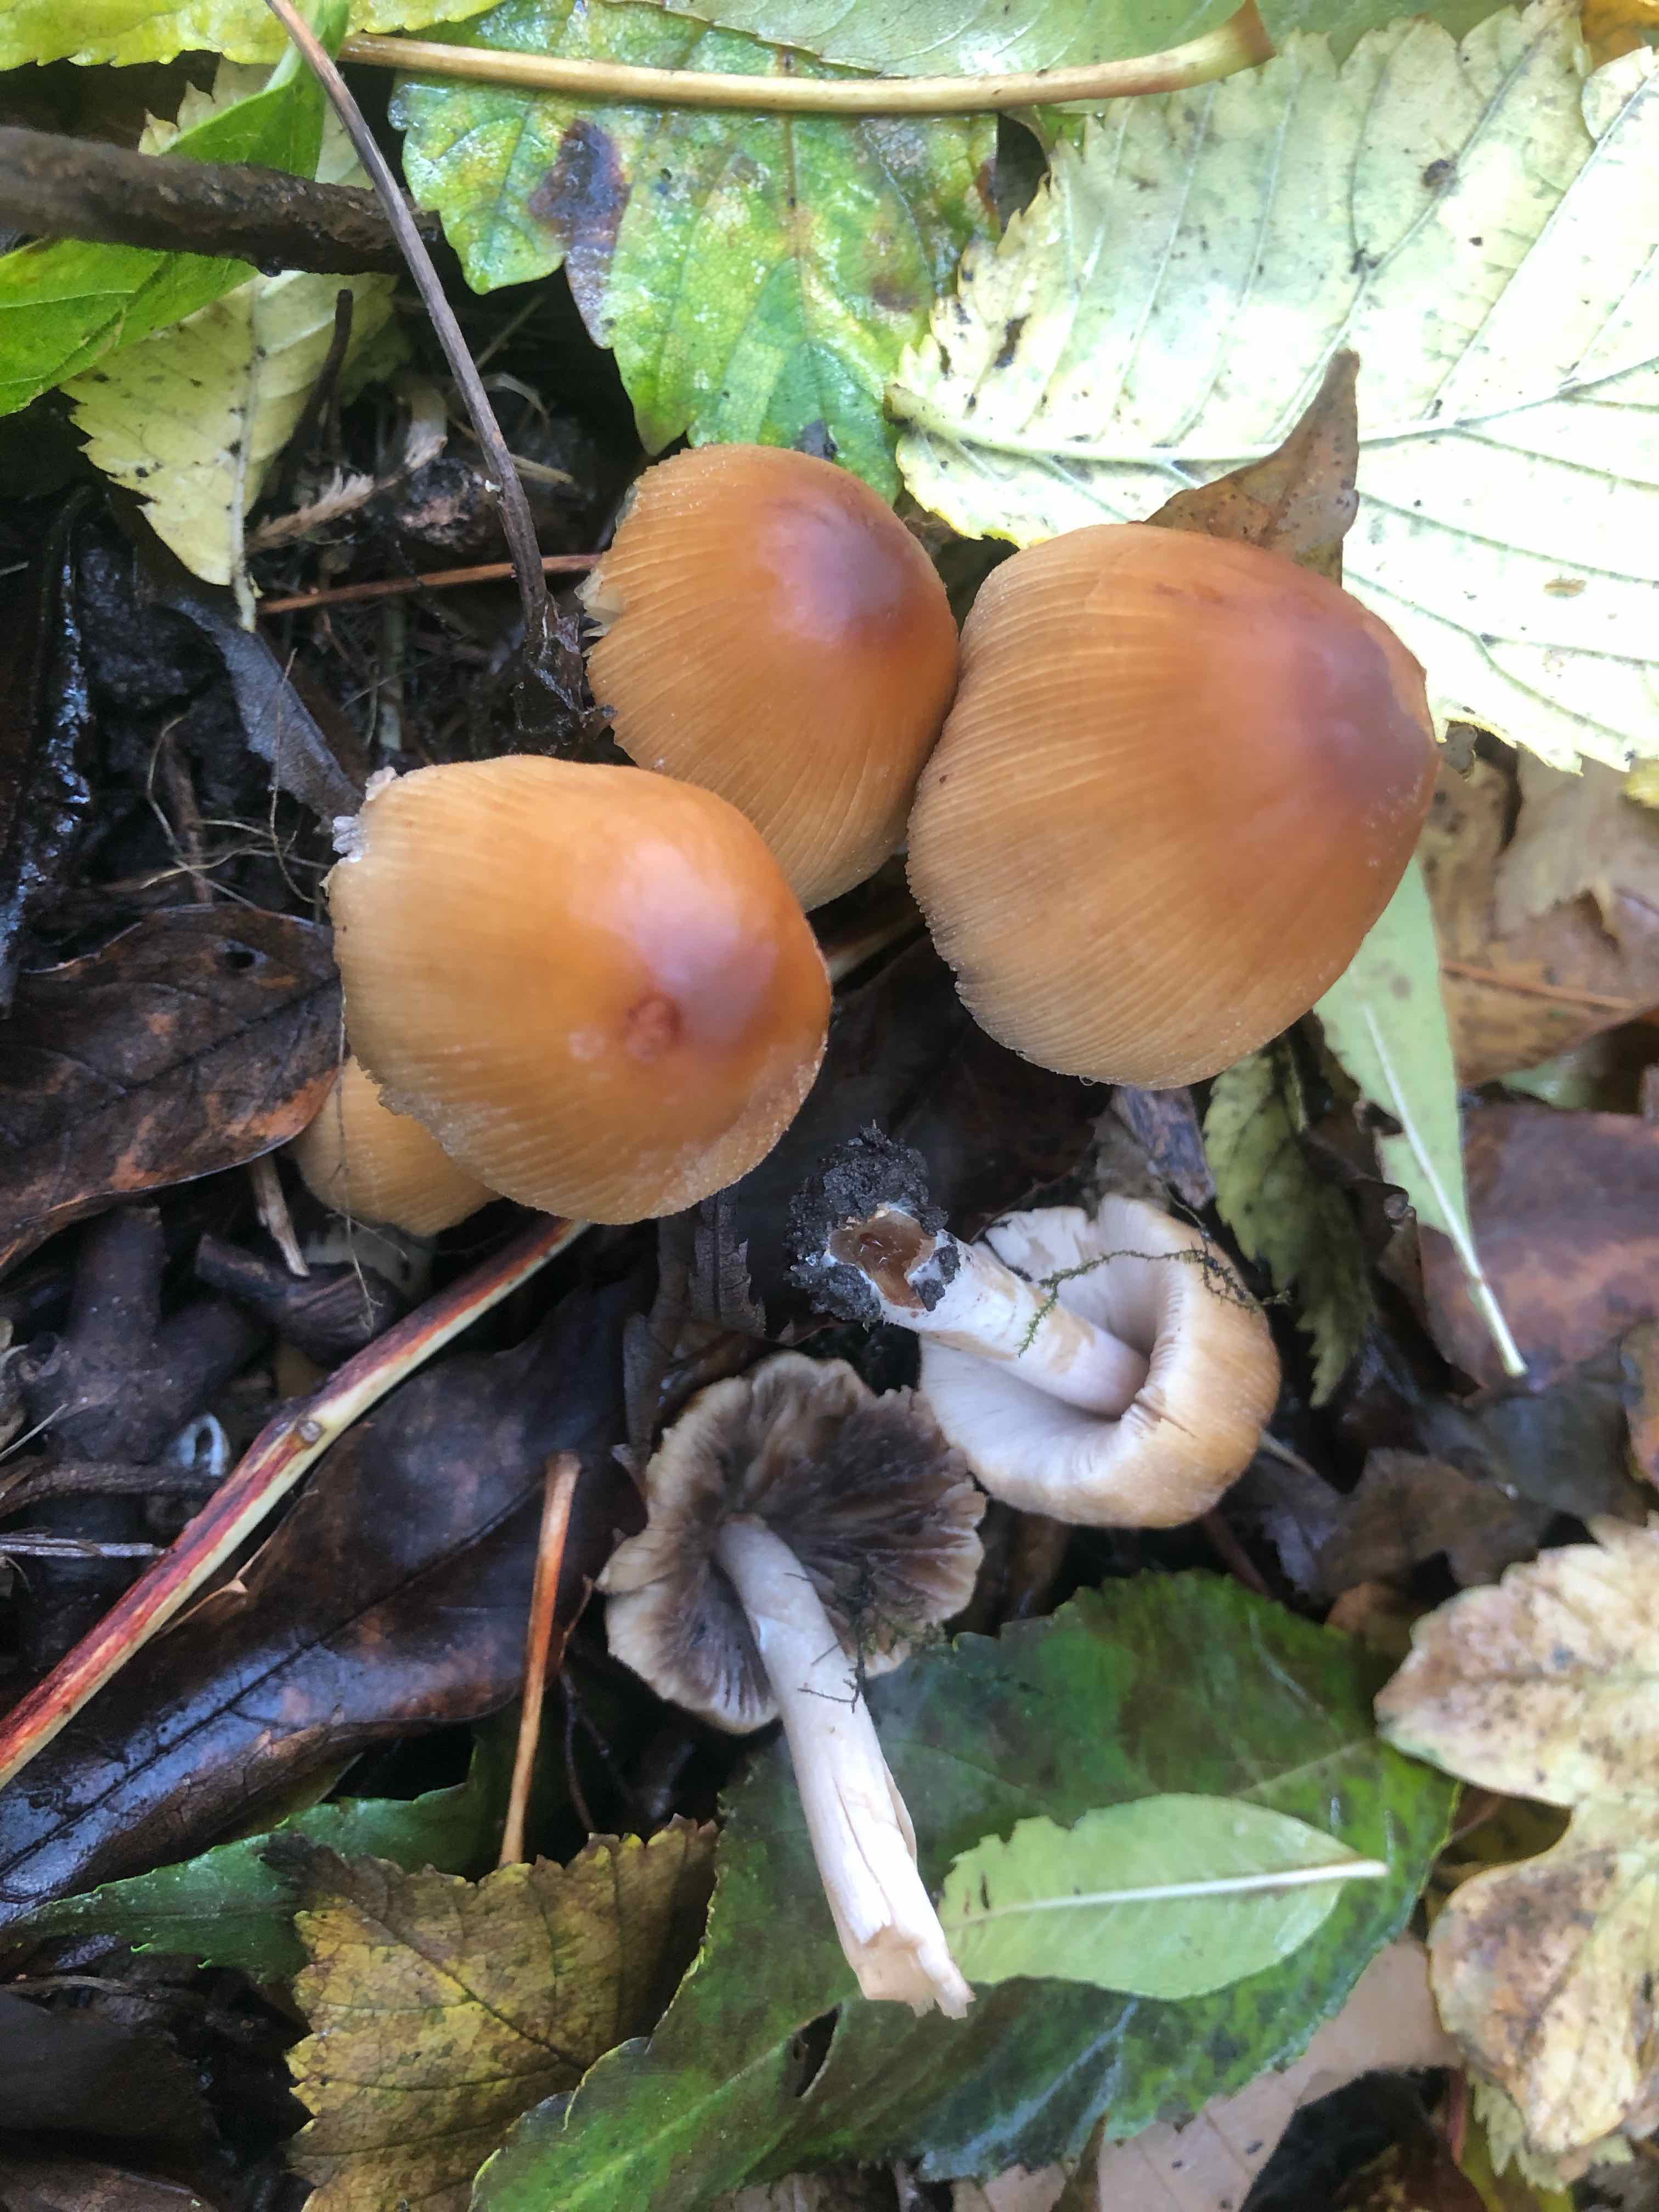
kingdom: Fungi
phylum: Basidiomycota
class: Agaricomycetes
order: Agaricales
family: Psathyrellaceae
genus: Coprinellus
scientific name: Coprinellus
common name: blækhat
